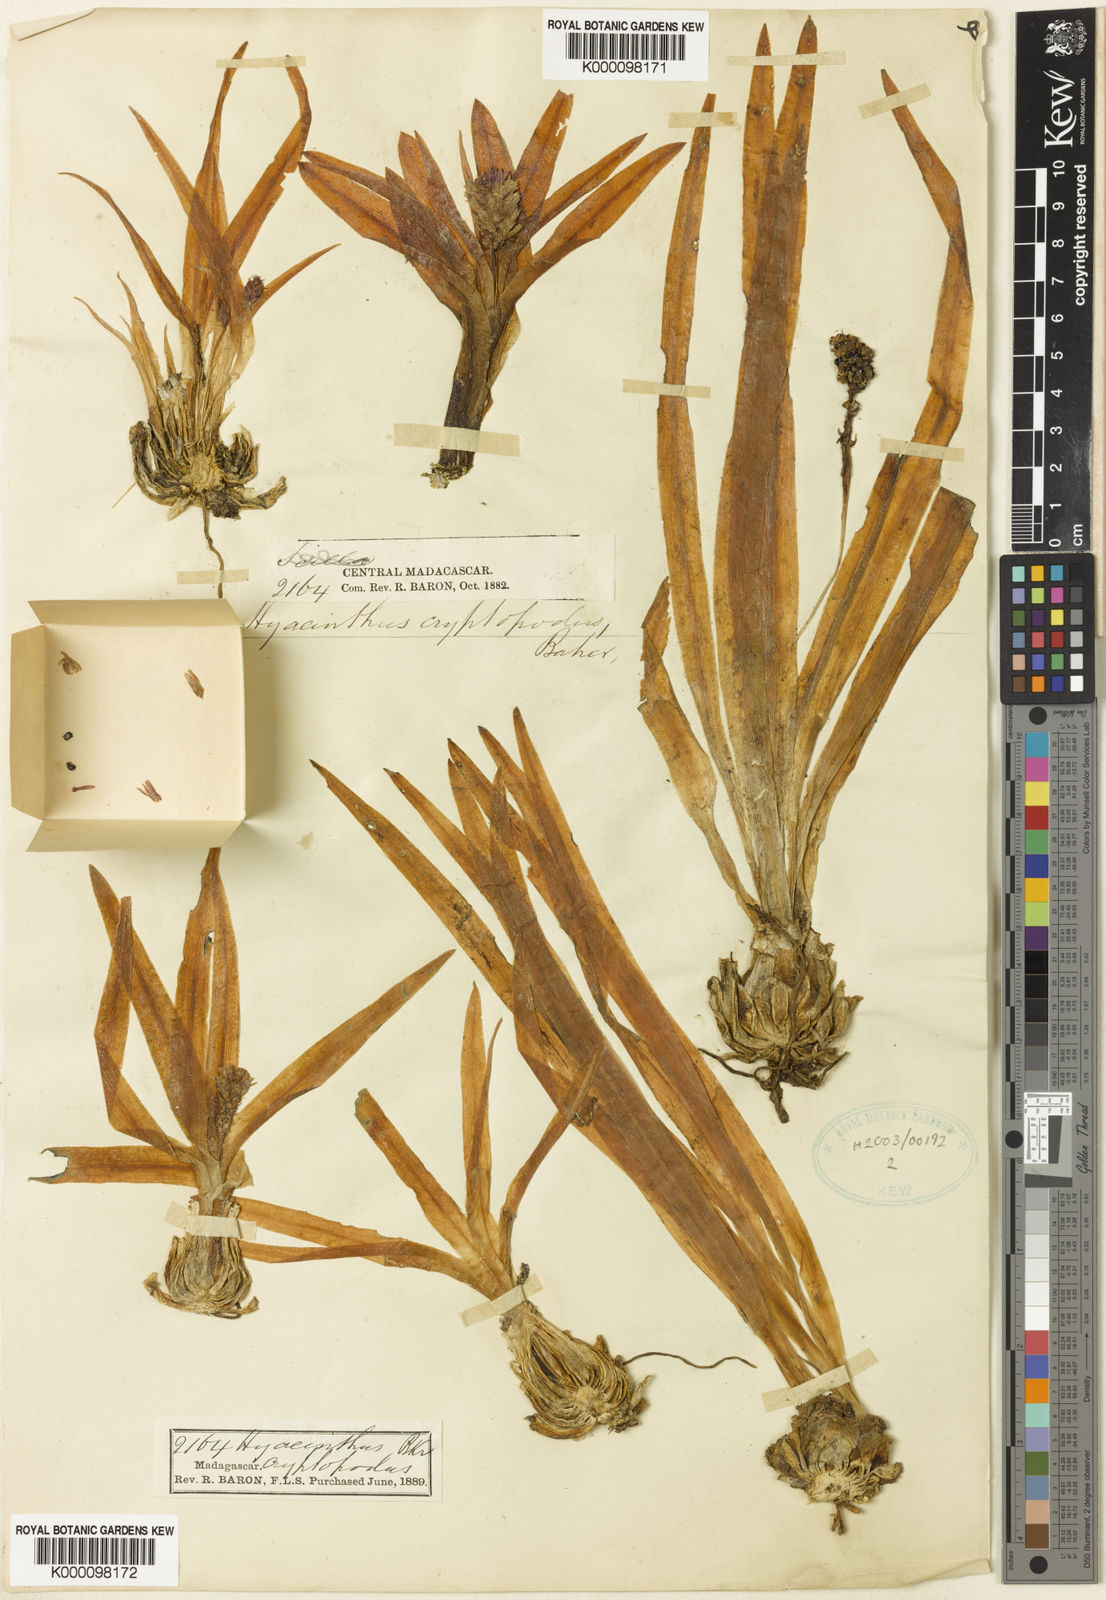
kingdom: Plantae
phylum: Tracheophyta
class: Liliopsida
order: Asparagales
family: Asparagaceae
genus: Drimia
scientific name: Drimia cryptopoda
